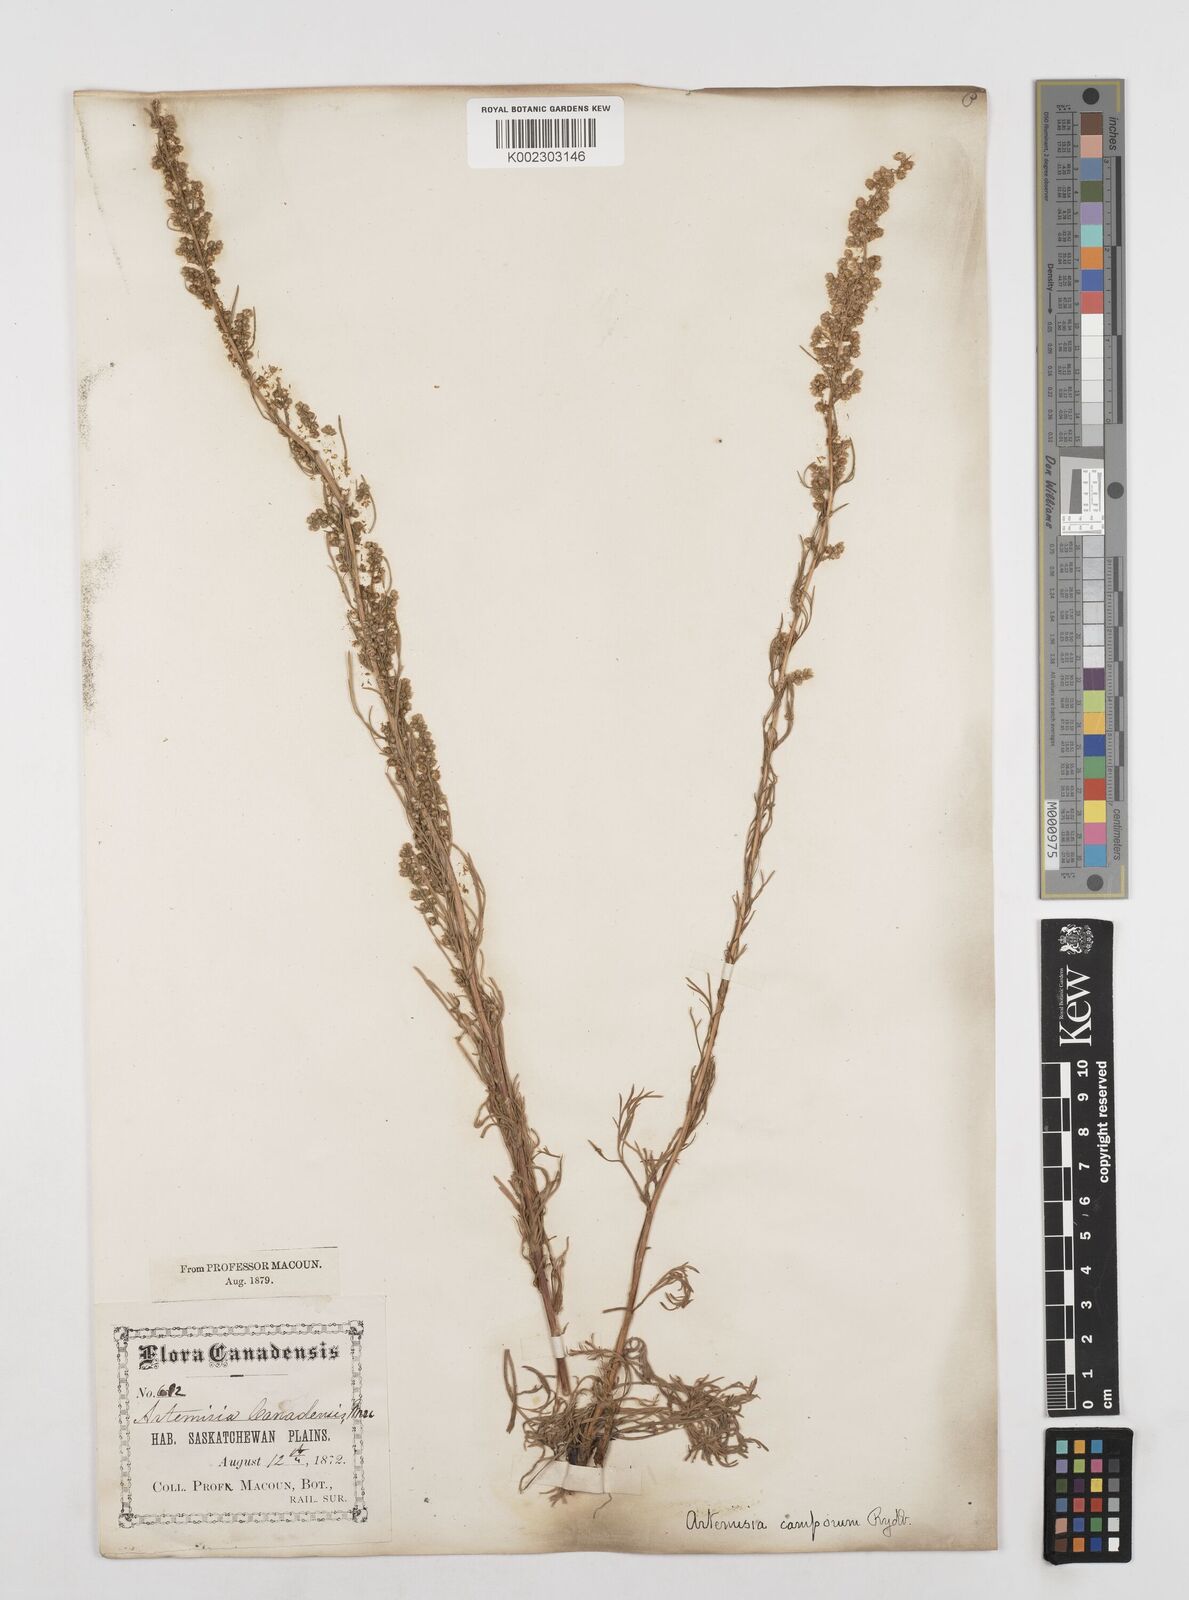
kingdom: Plantae
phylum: Tracheophyta
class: Magnoliopsida
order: Asterales
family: Asteraceae
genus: Artemisia
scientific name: Artemisia campestris
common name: Field wormwood
